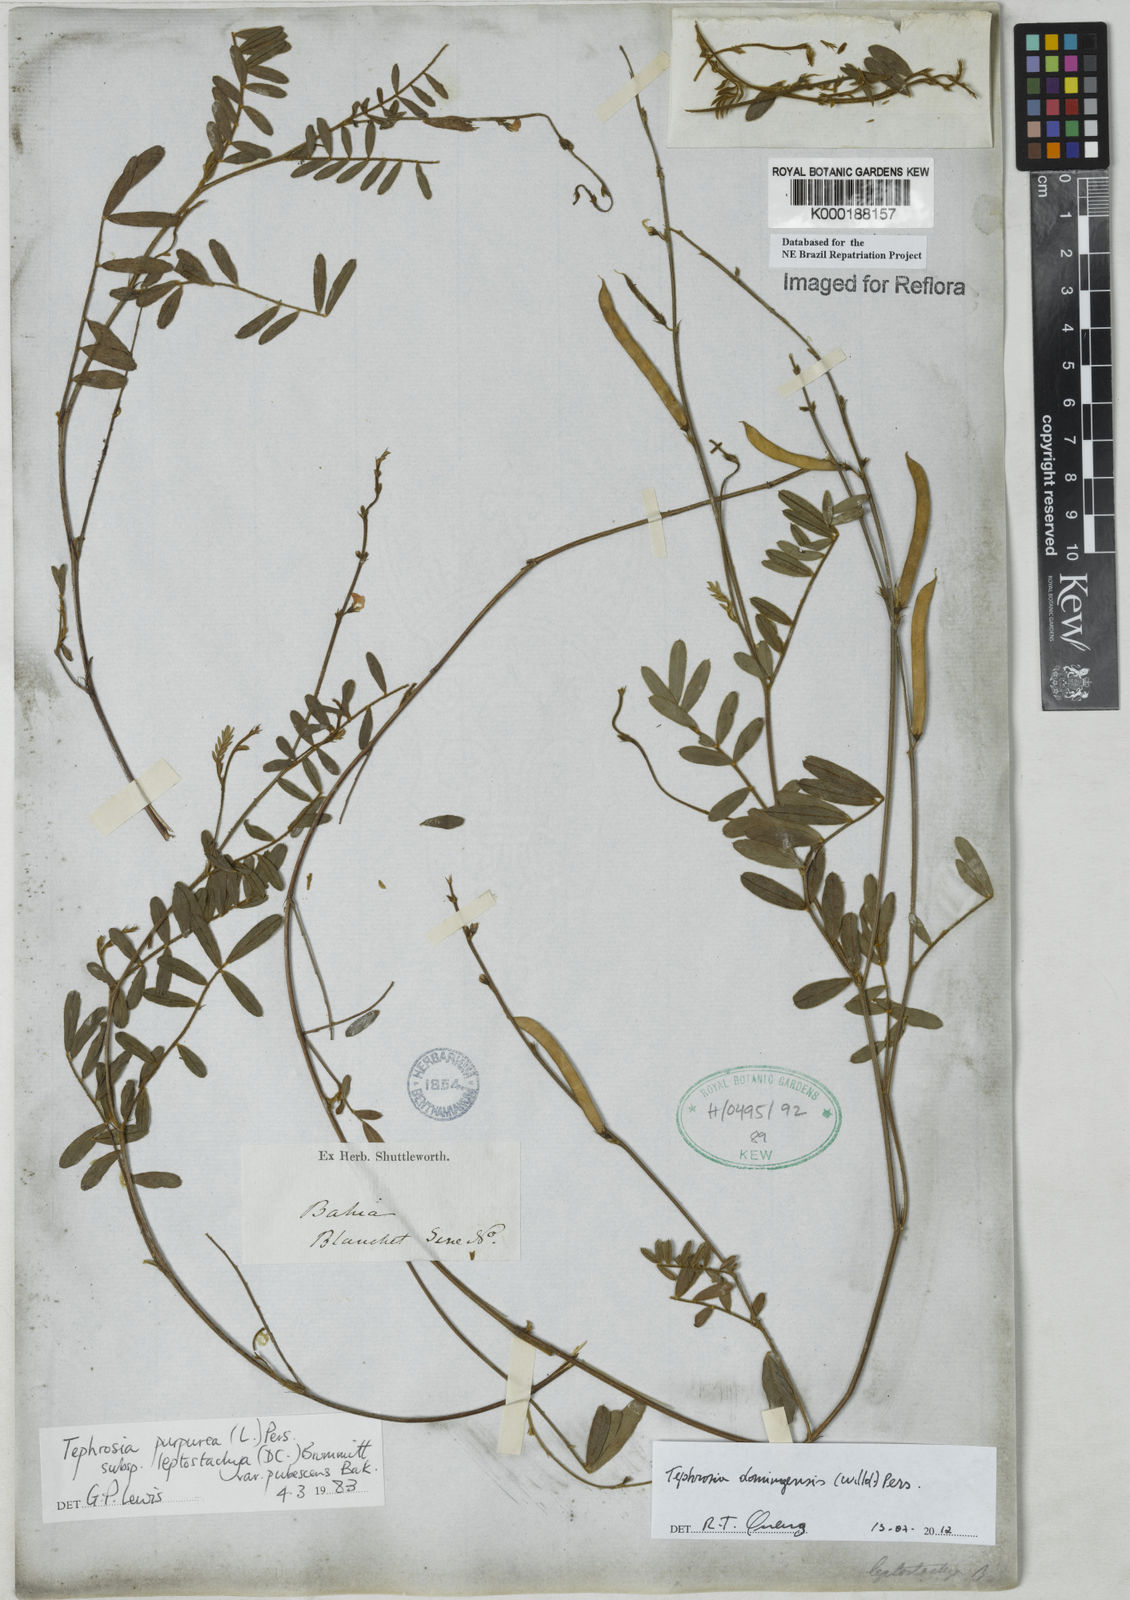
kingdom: Plantae
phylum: Tracheophyta
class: Magnoliopsida
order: Fabales
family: Fabaceae
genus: Tephrosia
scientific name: Tephrosia domingensis
